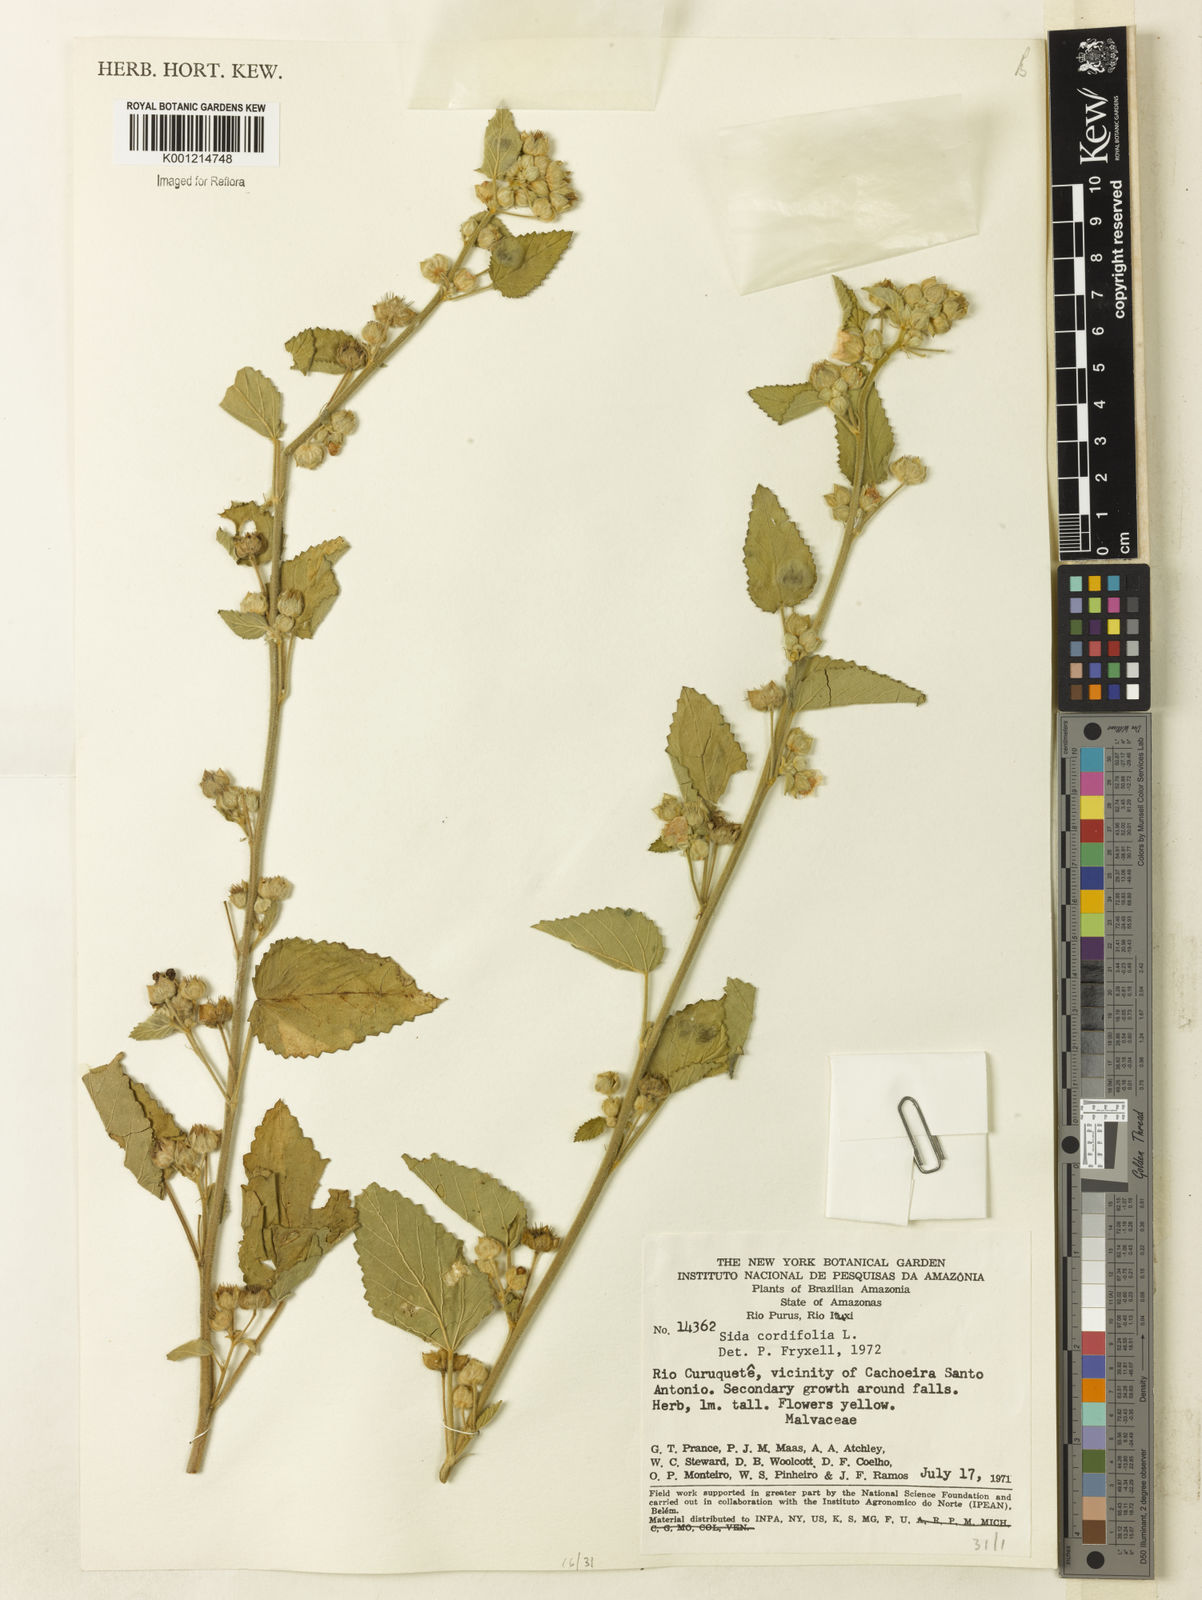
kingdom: Plantae
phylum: Tracheophyta
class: Magnoliopsida
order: Malvales
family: Malvaceae
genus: Sida
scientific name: Sida cordifolia
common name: Ilima
